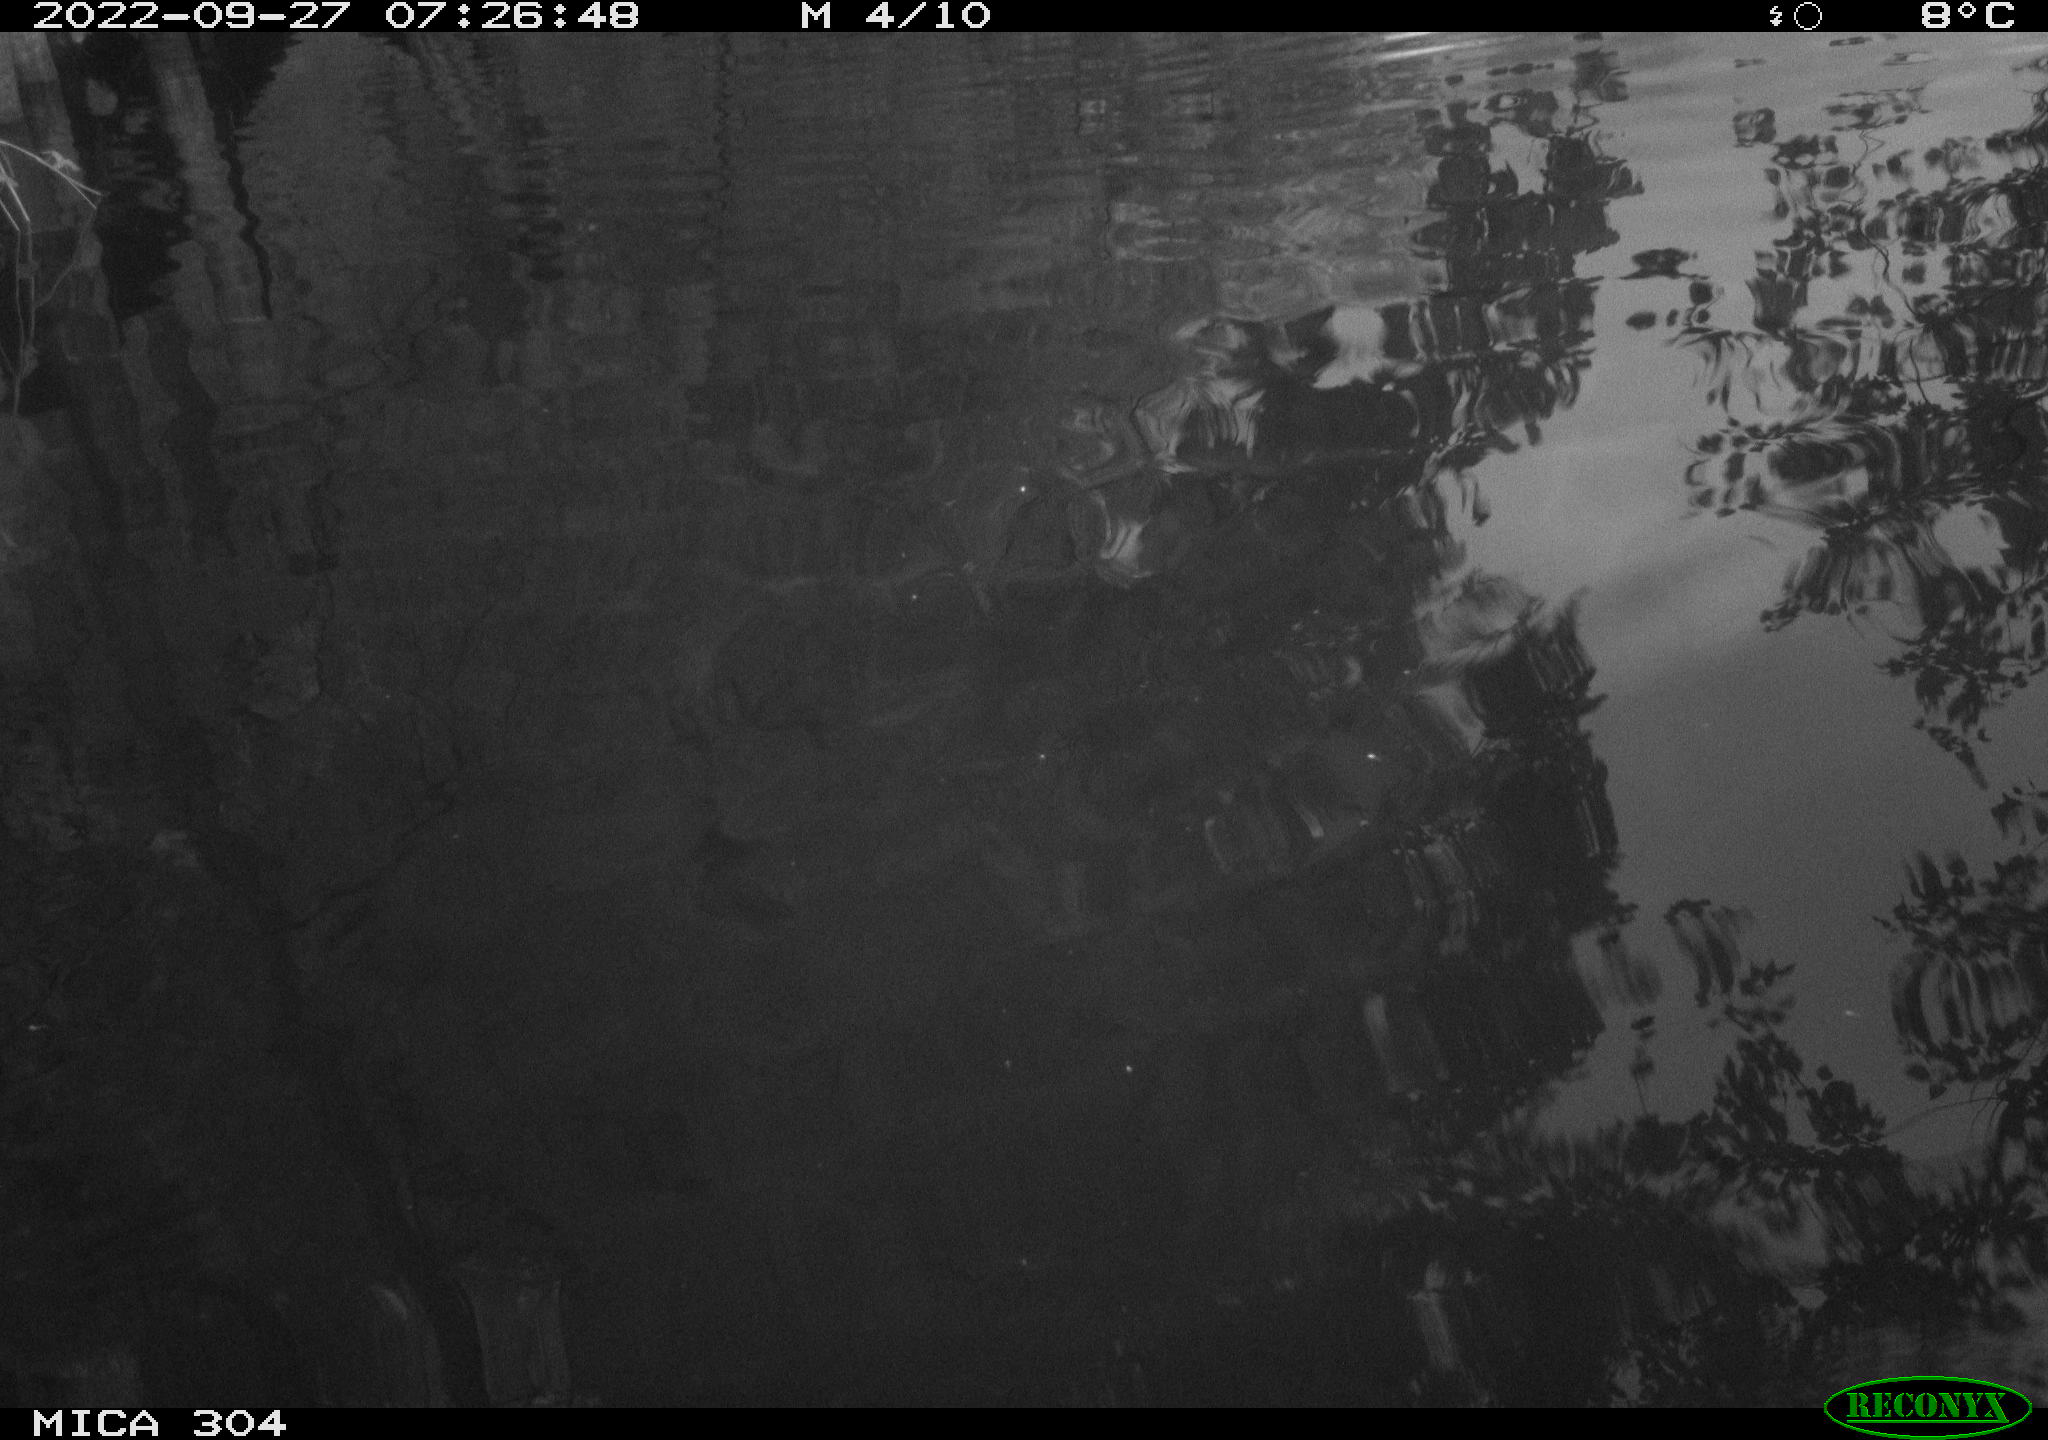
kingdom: Animalia
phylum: Chordata
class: Aves
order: Anseriformes
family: Anatidae
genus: Anas
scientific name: Anas
